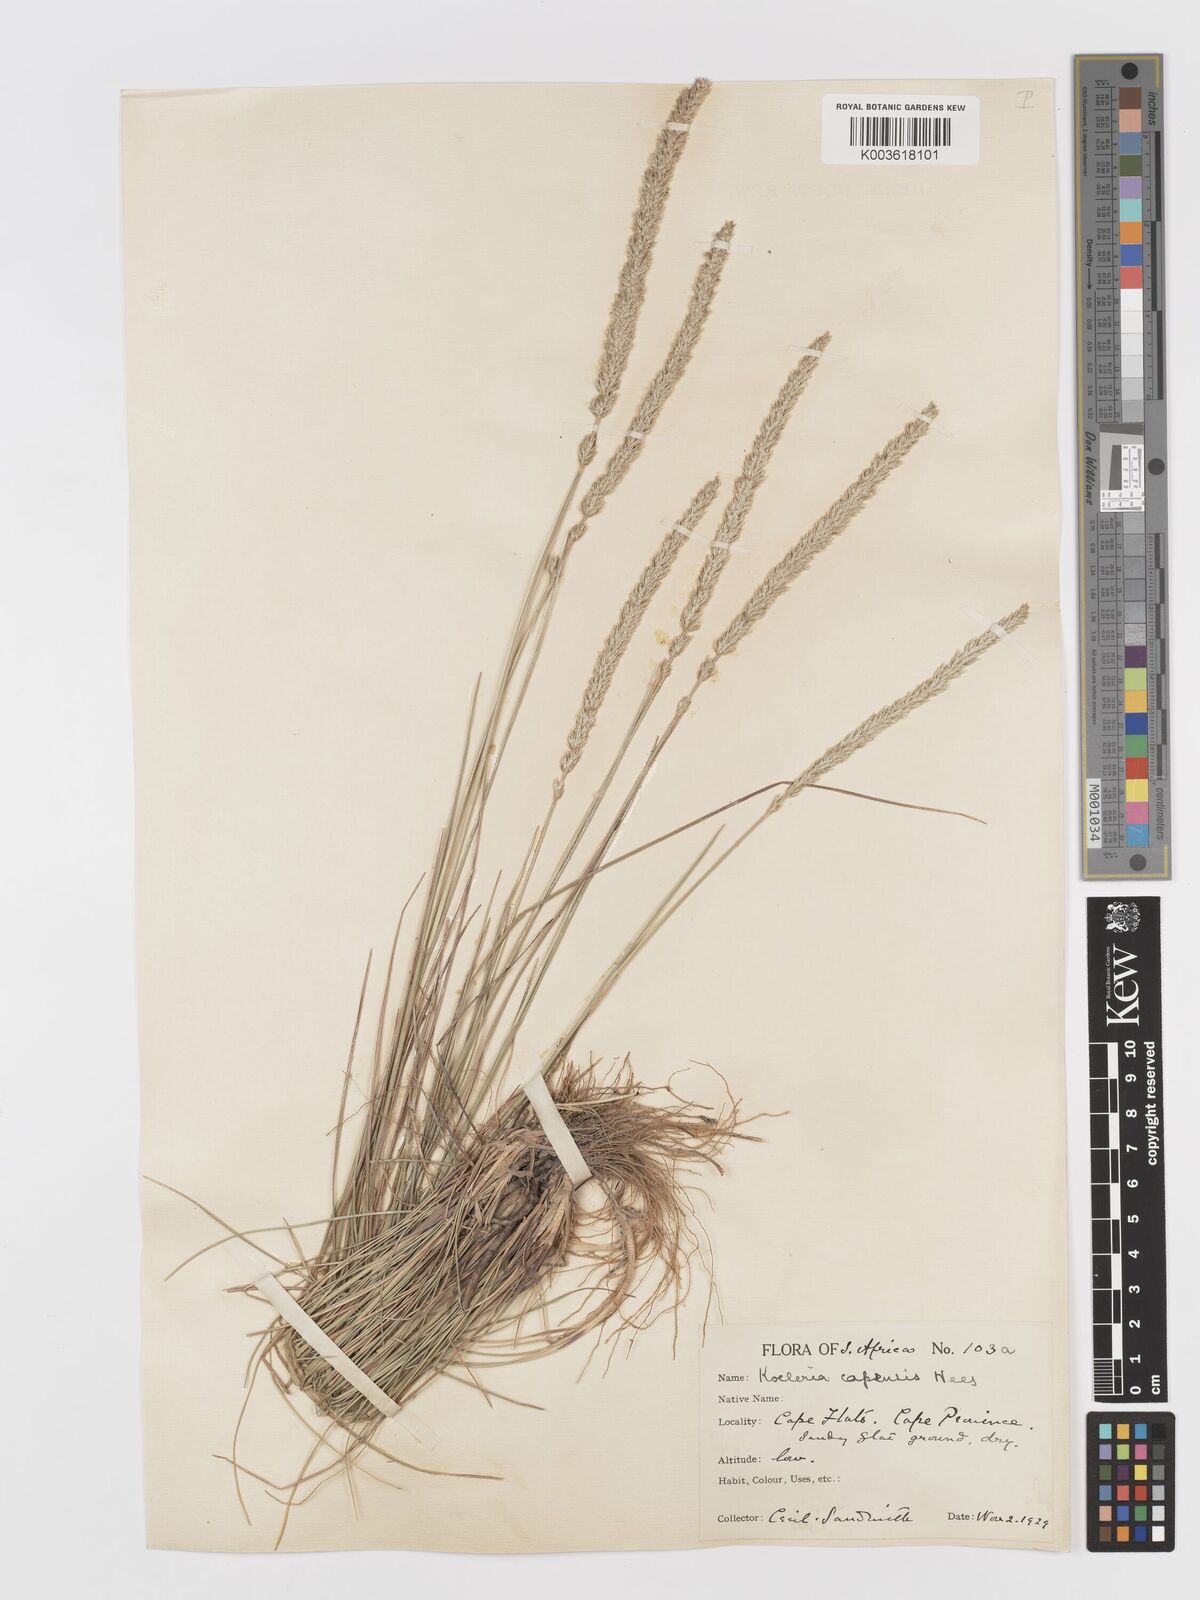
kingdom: Plantae
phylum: Tracheophyta
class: Liliopsida
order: Poales
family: Poaceae
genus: Koeleria
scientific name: Koeleria capensis
